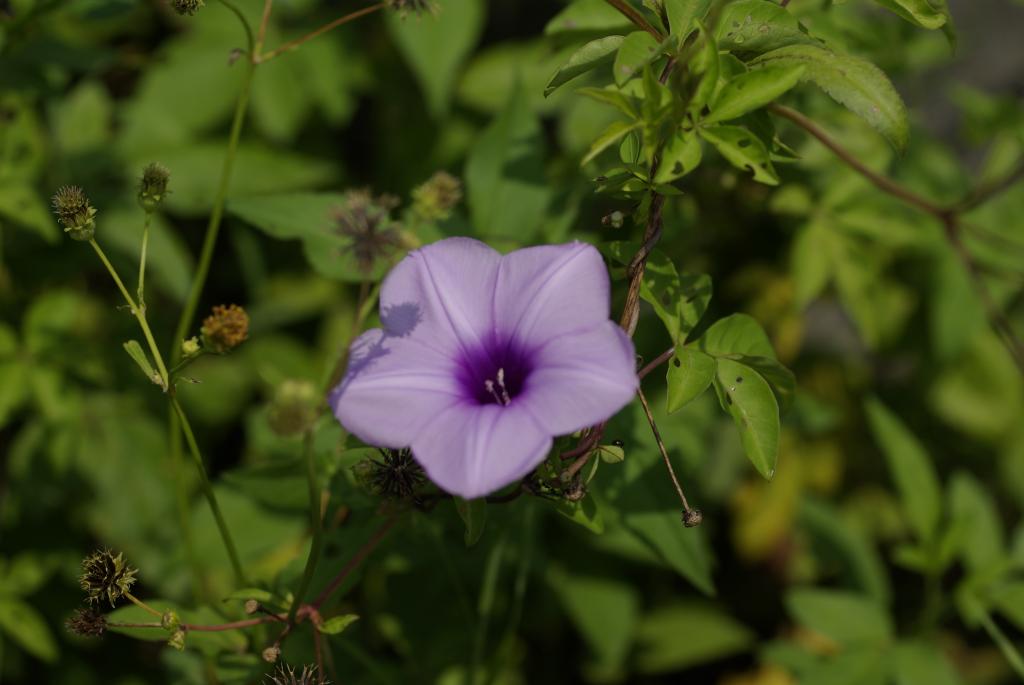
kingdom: Plantae
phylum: Tracheophyta
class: Magnoliopsida
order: Solanales
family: Convolvulaceae
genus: Ipomoea
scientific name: Ipomoea cairica
